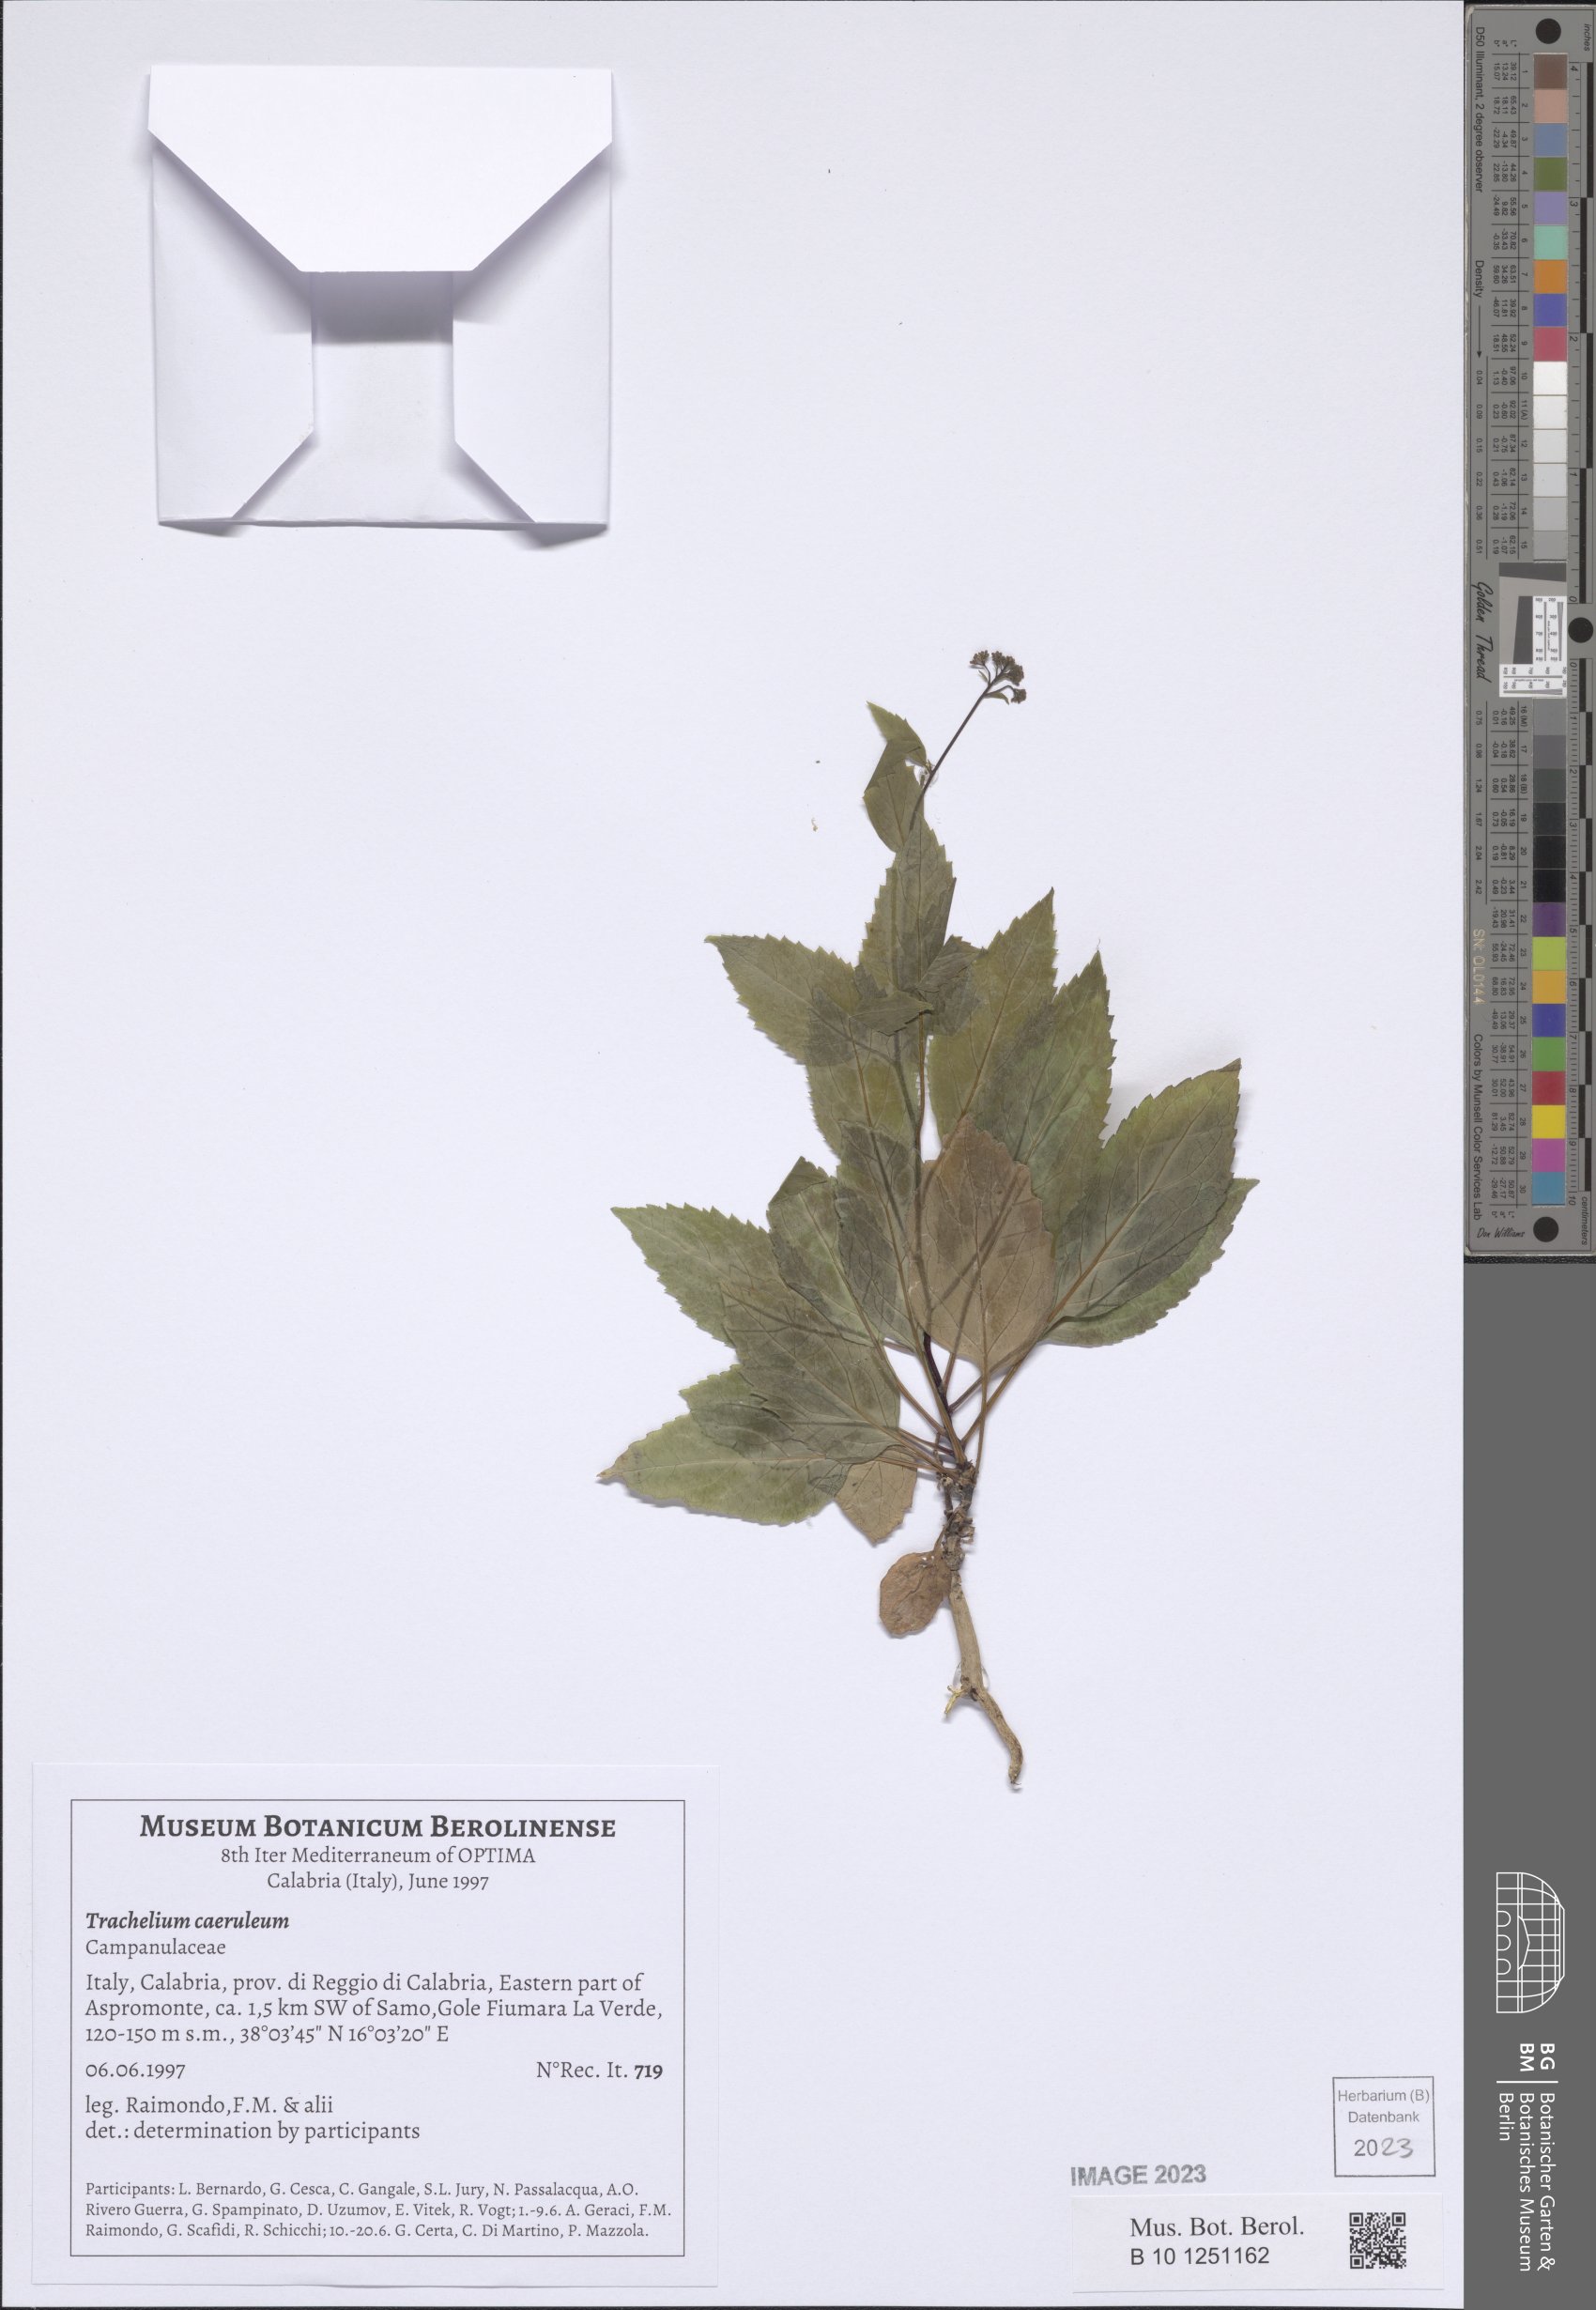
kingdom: Plantae
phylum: Tracheophyta
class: Magnoliopsida
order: Asterales
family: Campanulaceae
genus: Trachelium
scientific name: Trachelium caeruleum
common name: Throatwort
